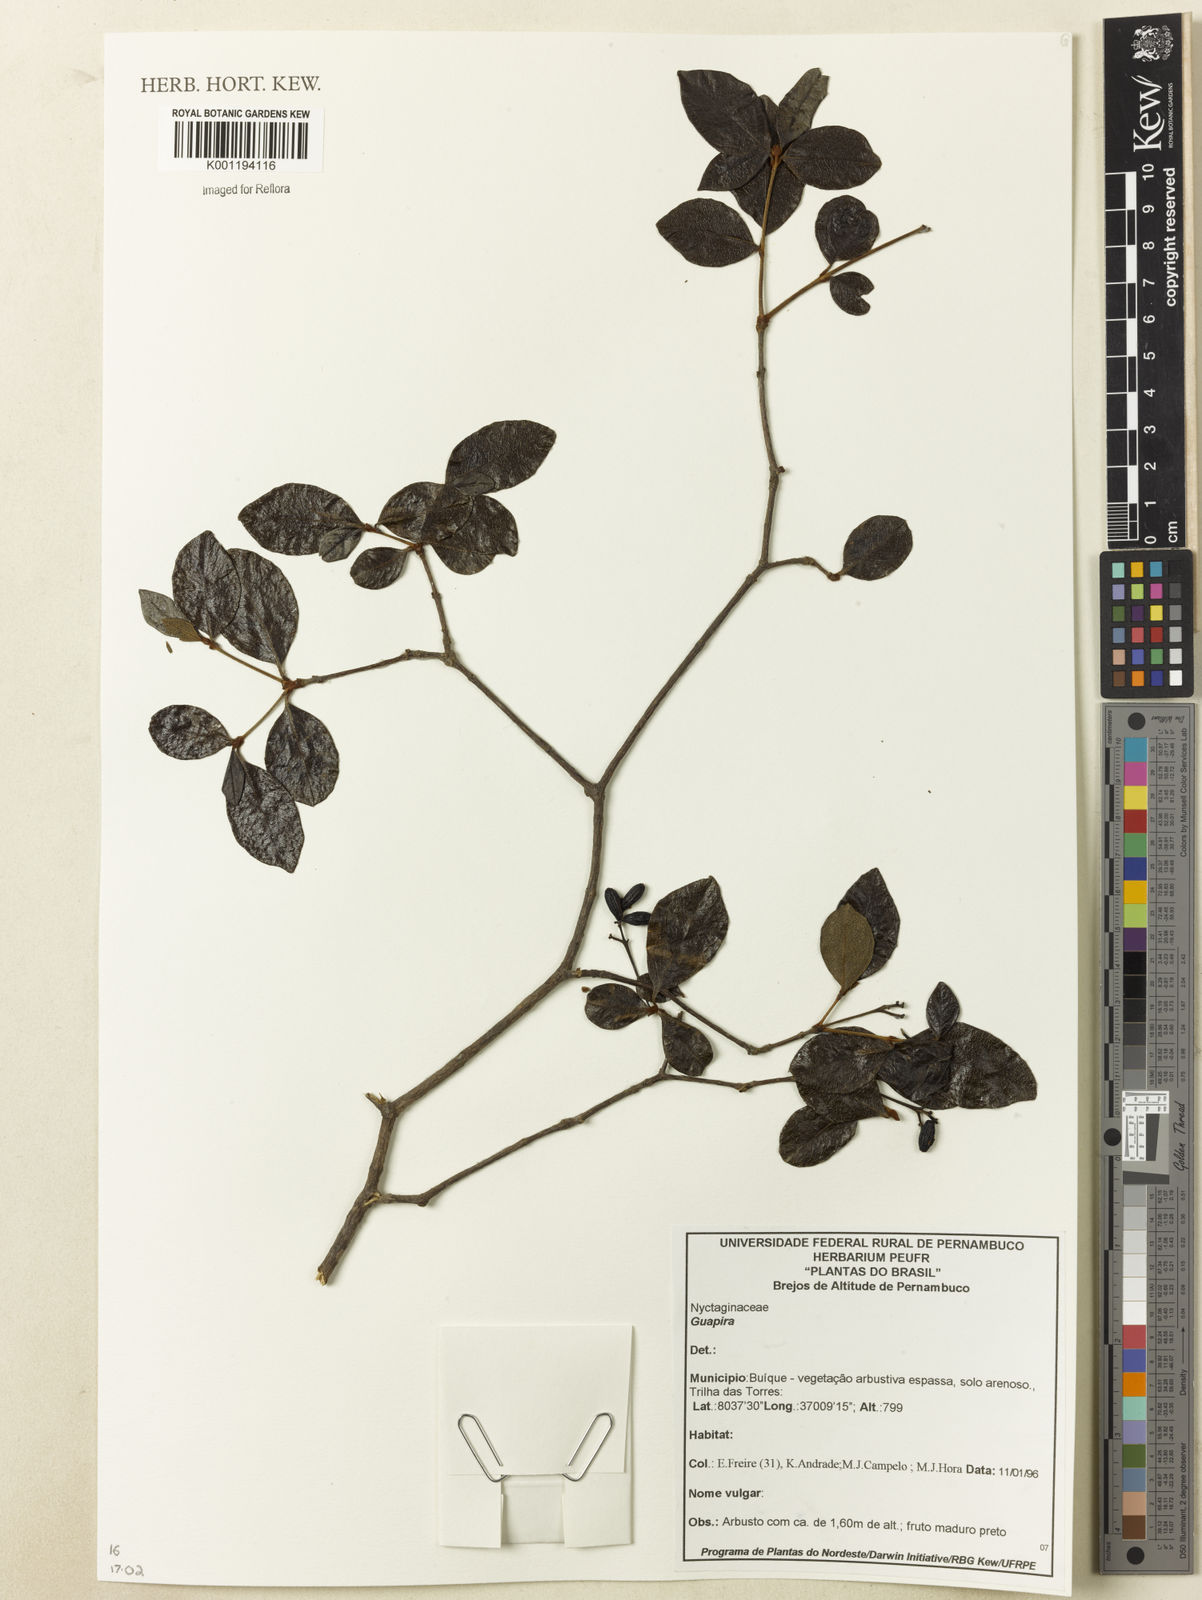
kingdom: Plantae
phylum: Tracheophyta
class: Magnoliopsida
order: Caryophyllales
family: Nyctaginaceae
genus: Guapira
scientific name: Guapira
